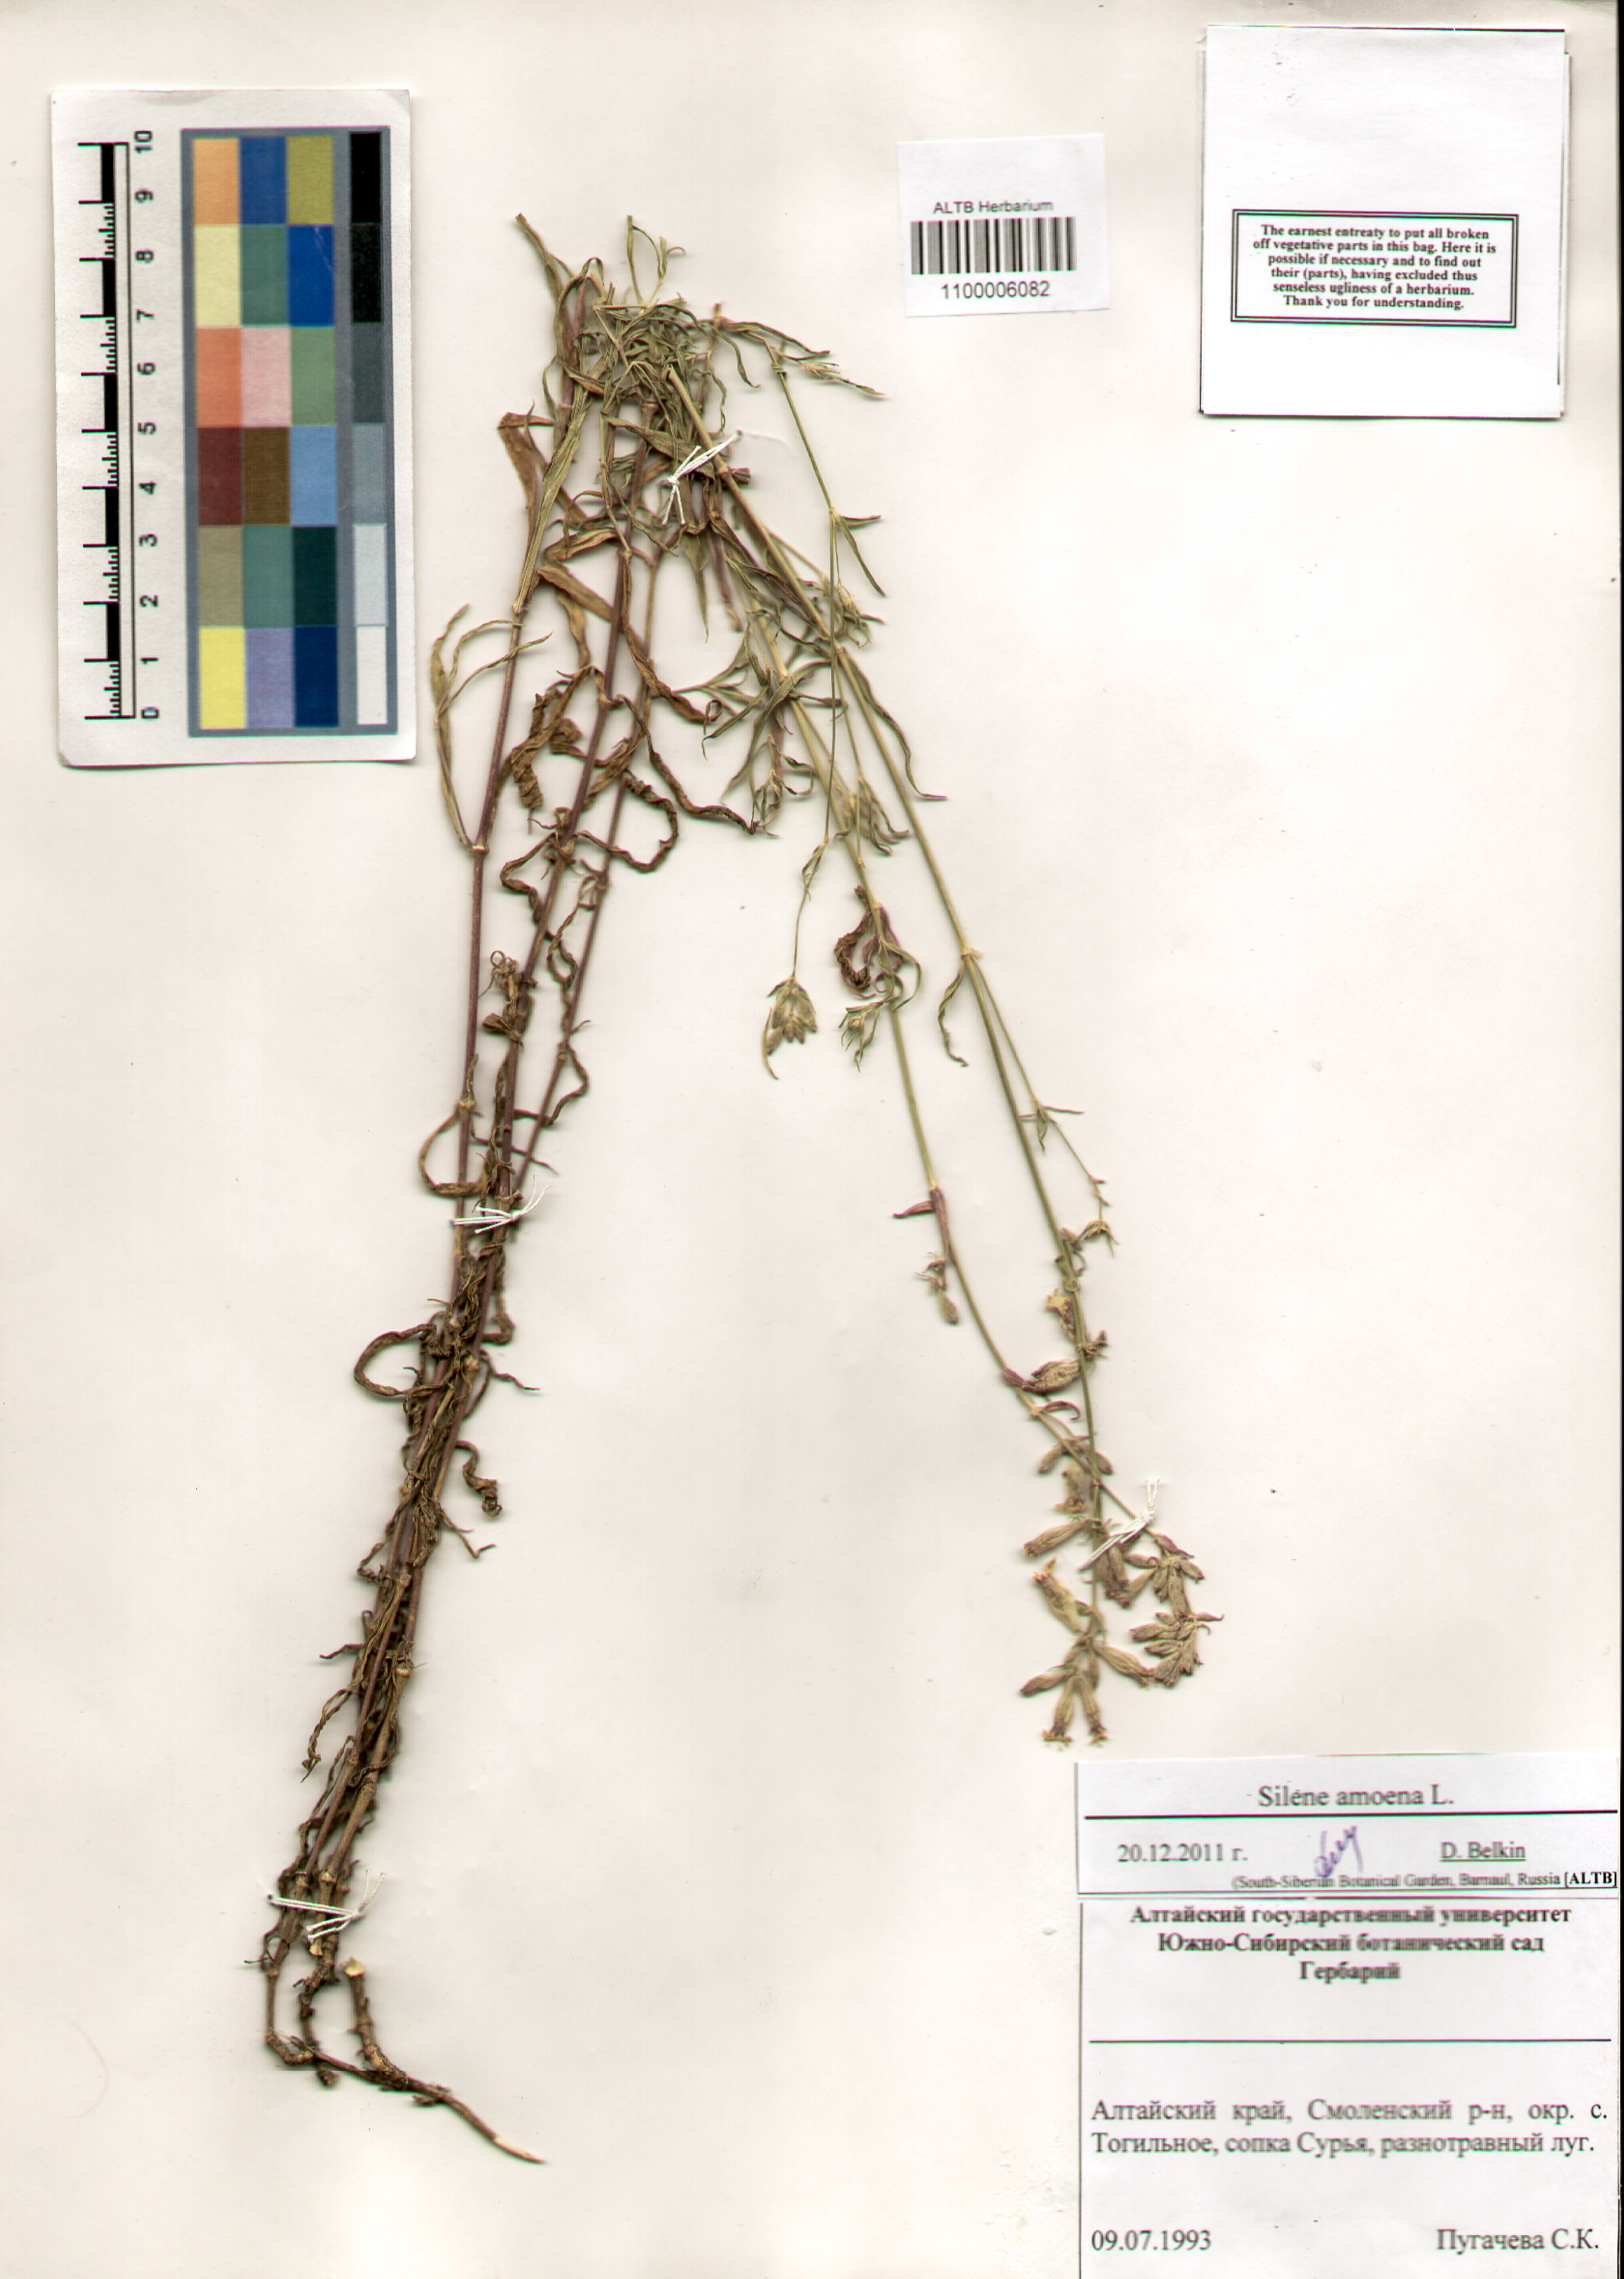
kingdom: Plantae
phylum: Tracheophyta
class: Magnoliopsida
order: Caryophyllales
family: Caryophyllaceae
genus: Silene
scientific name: Silene amoena
